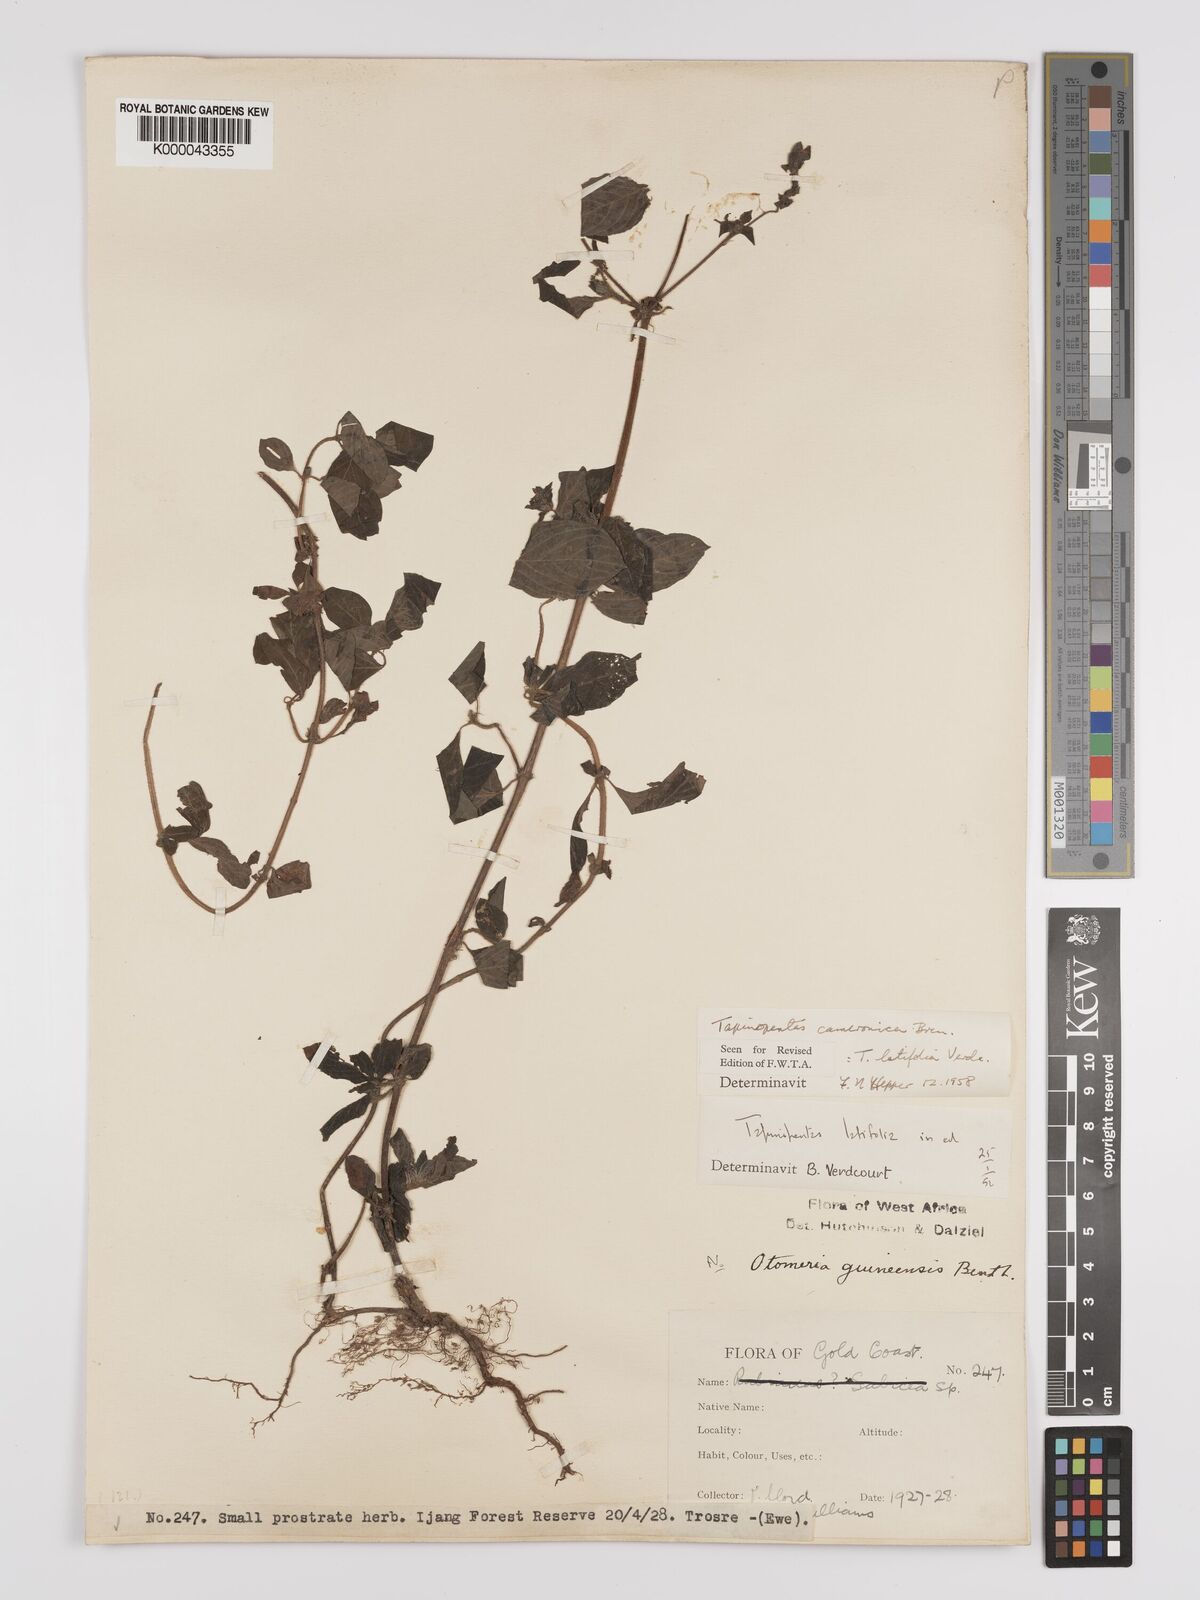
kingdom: Plantae
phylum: Tracheophyta
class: Magnoliopsida
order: Gentianales
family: Rubiaceae
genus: Otomeria
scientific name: Otomeria cameronica
